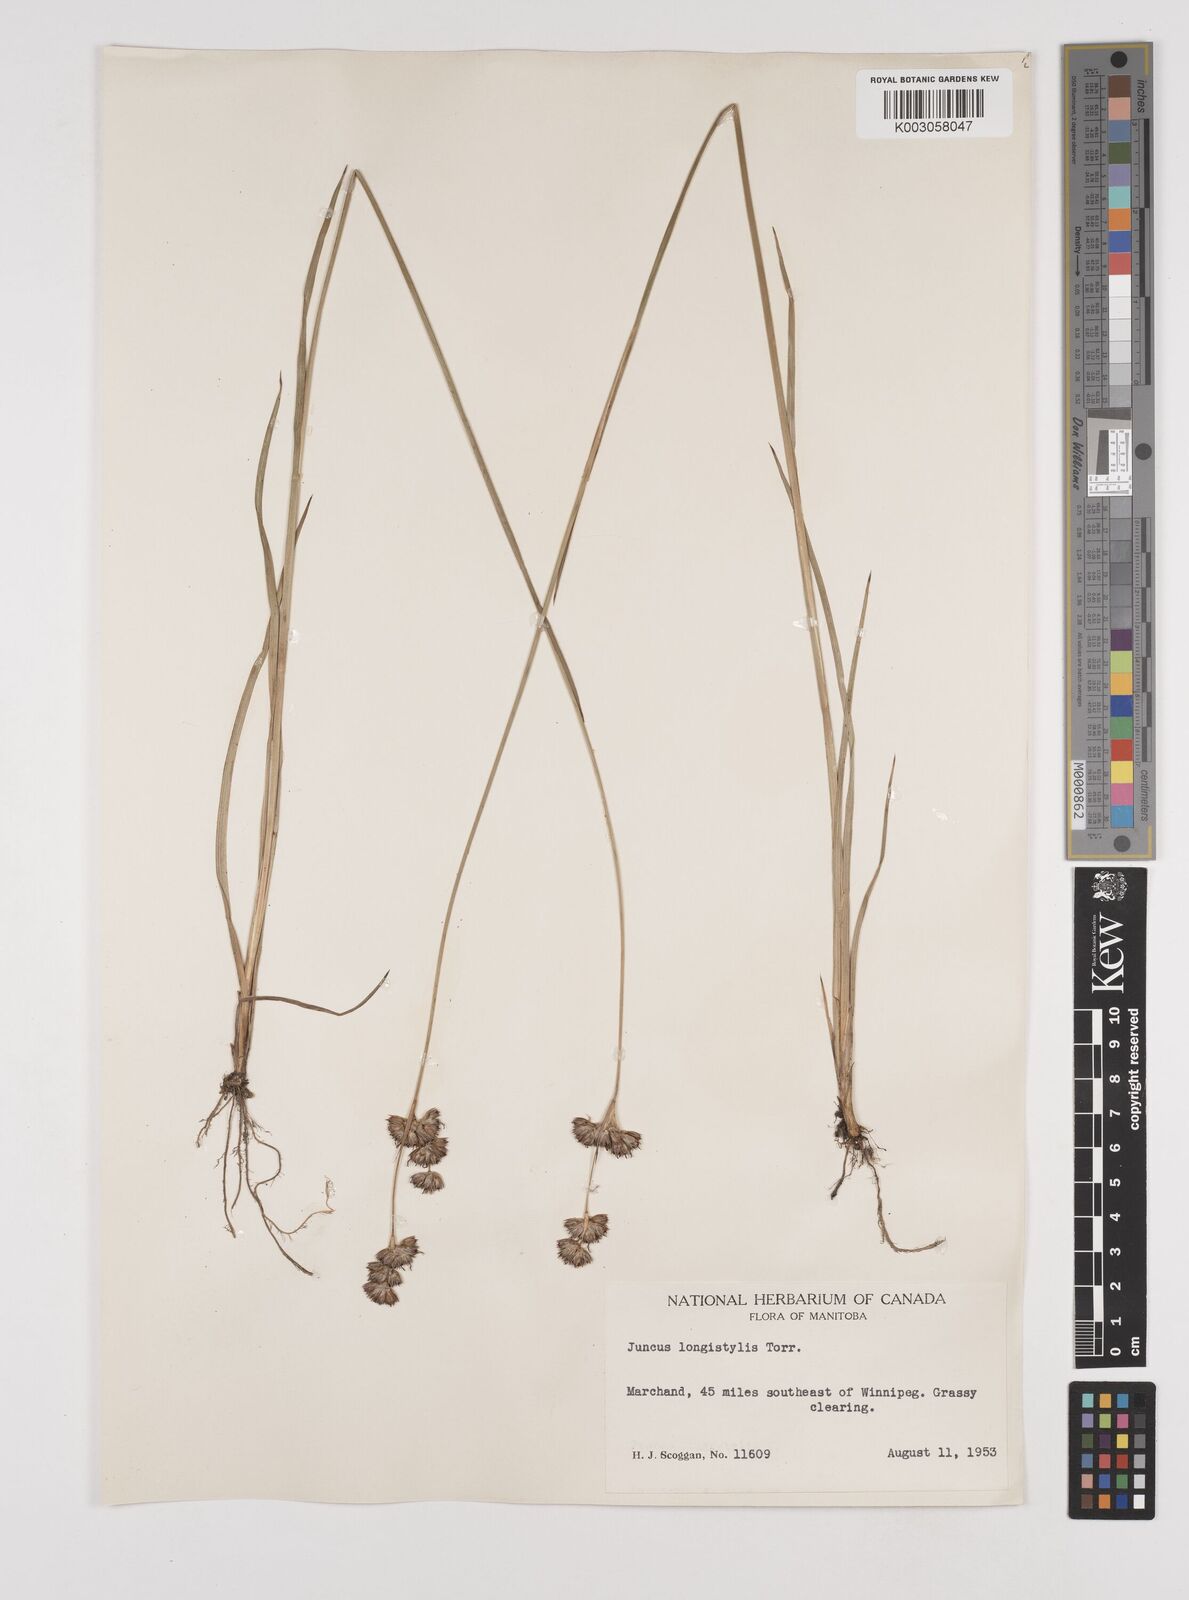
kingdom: Plantae
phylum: Tracheophyta
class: Liliopsida
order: Poales
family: Juncaceae
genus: Juncus
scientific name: Juncus longistylis
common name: Long-style rush
